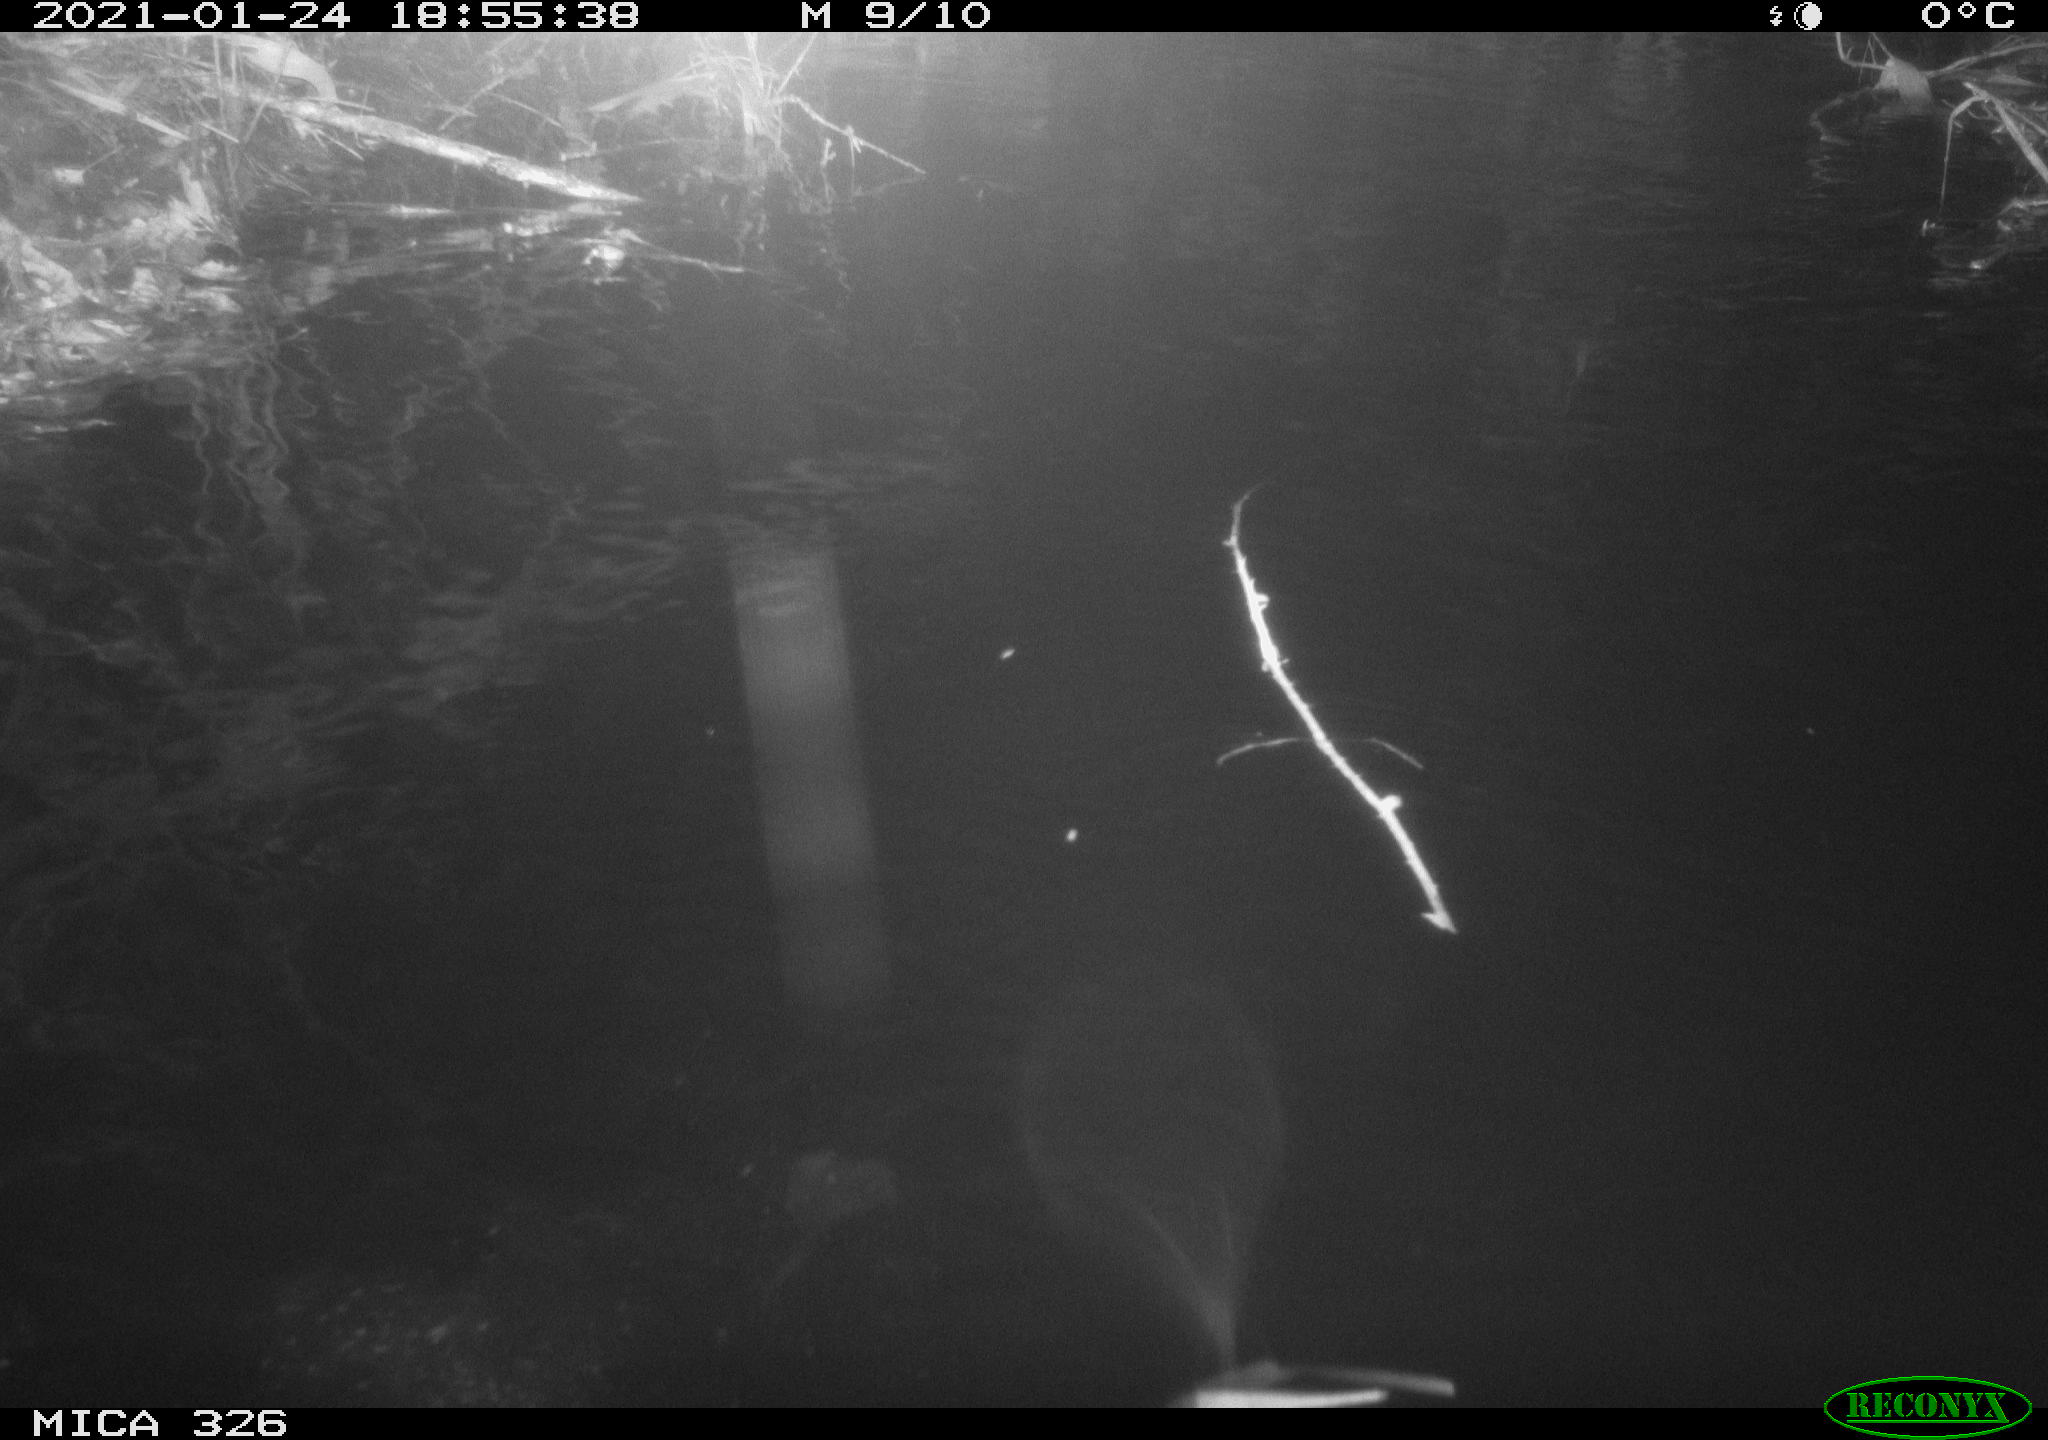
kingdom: Animalia
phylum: Chordata
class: Mammalia
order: Rodentia
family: Myocastoridae
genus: Myocastor
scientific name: Myocastor coypus
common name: Coypu
